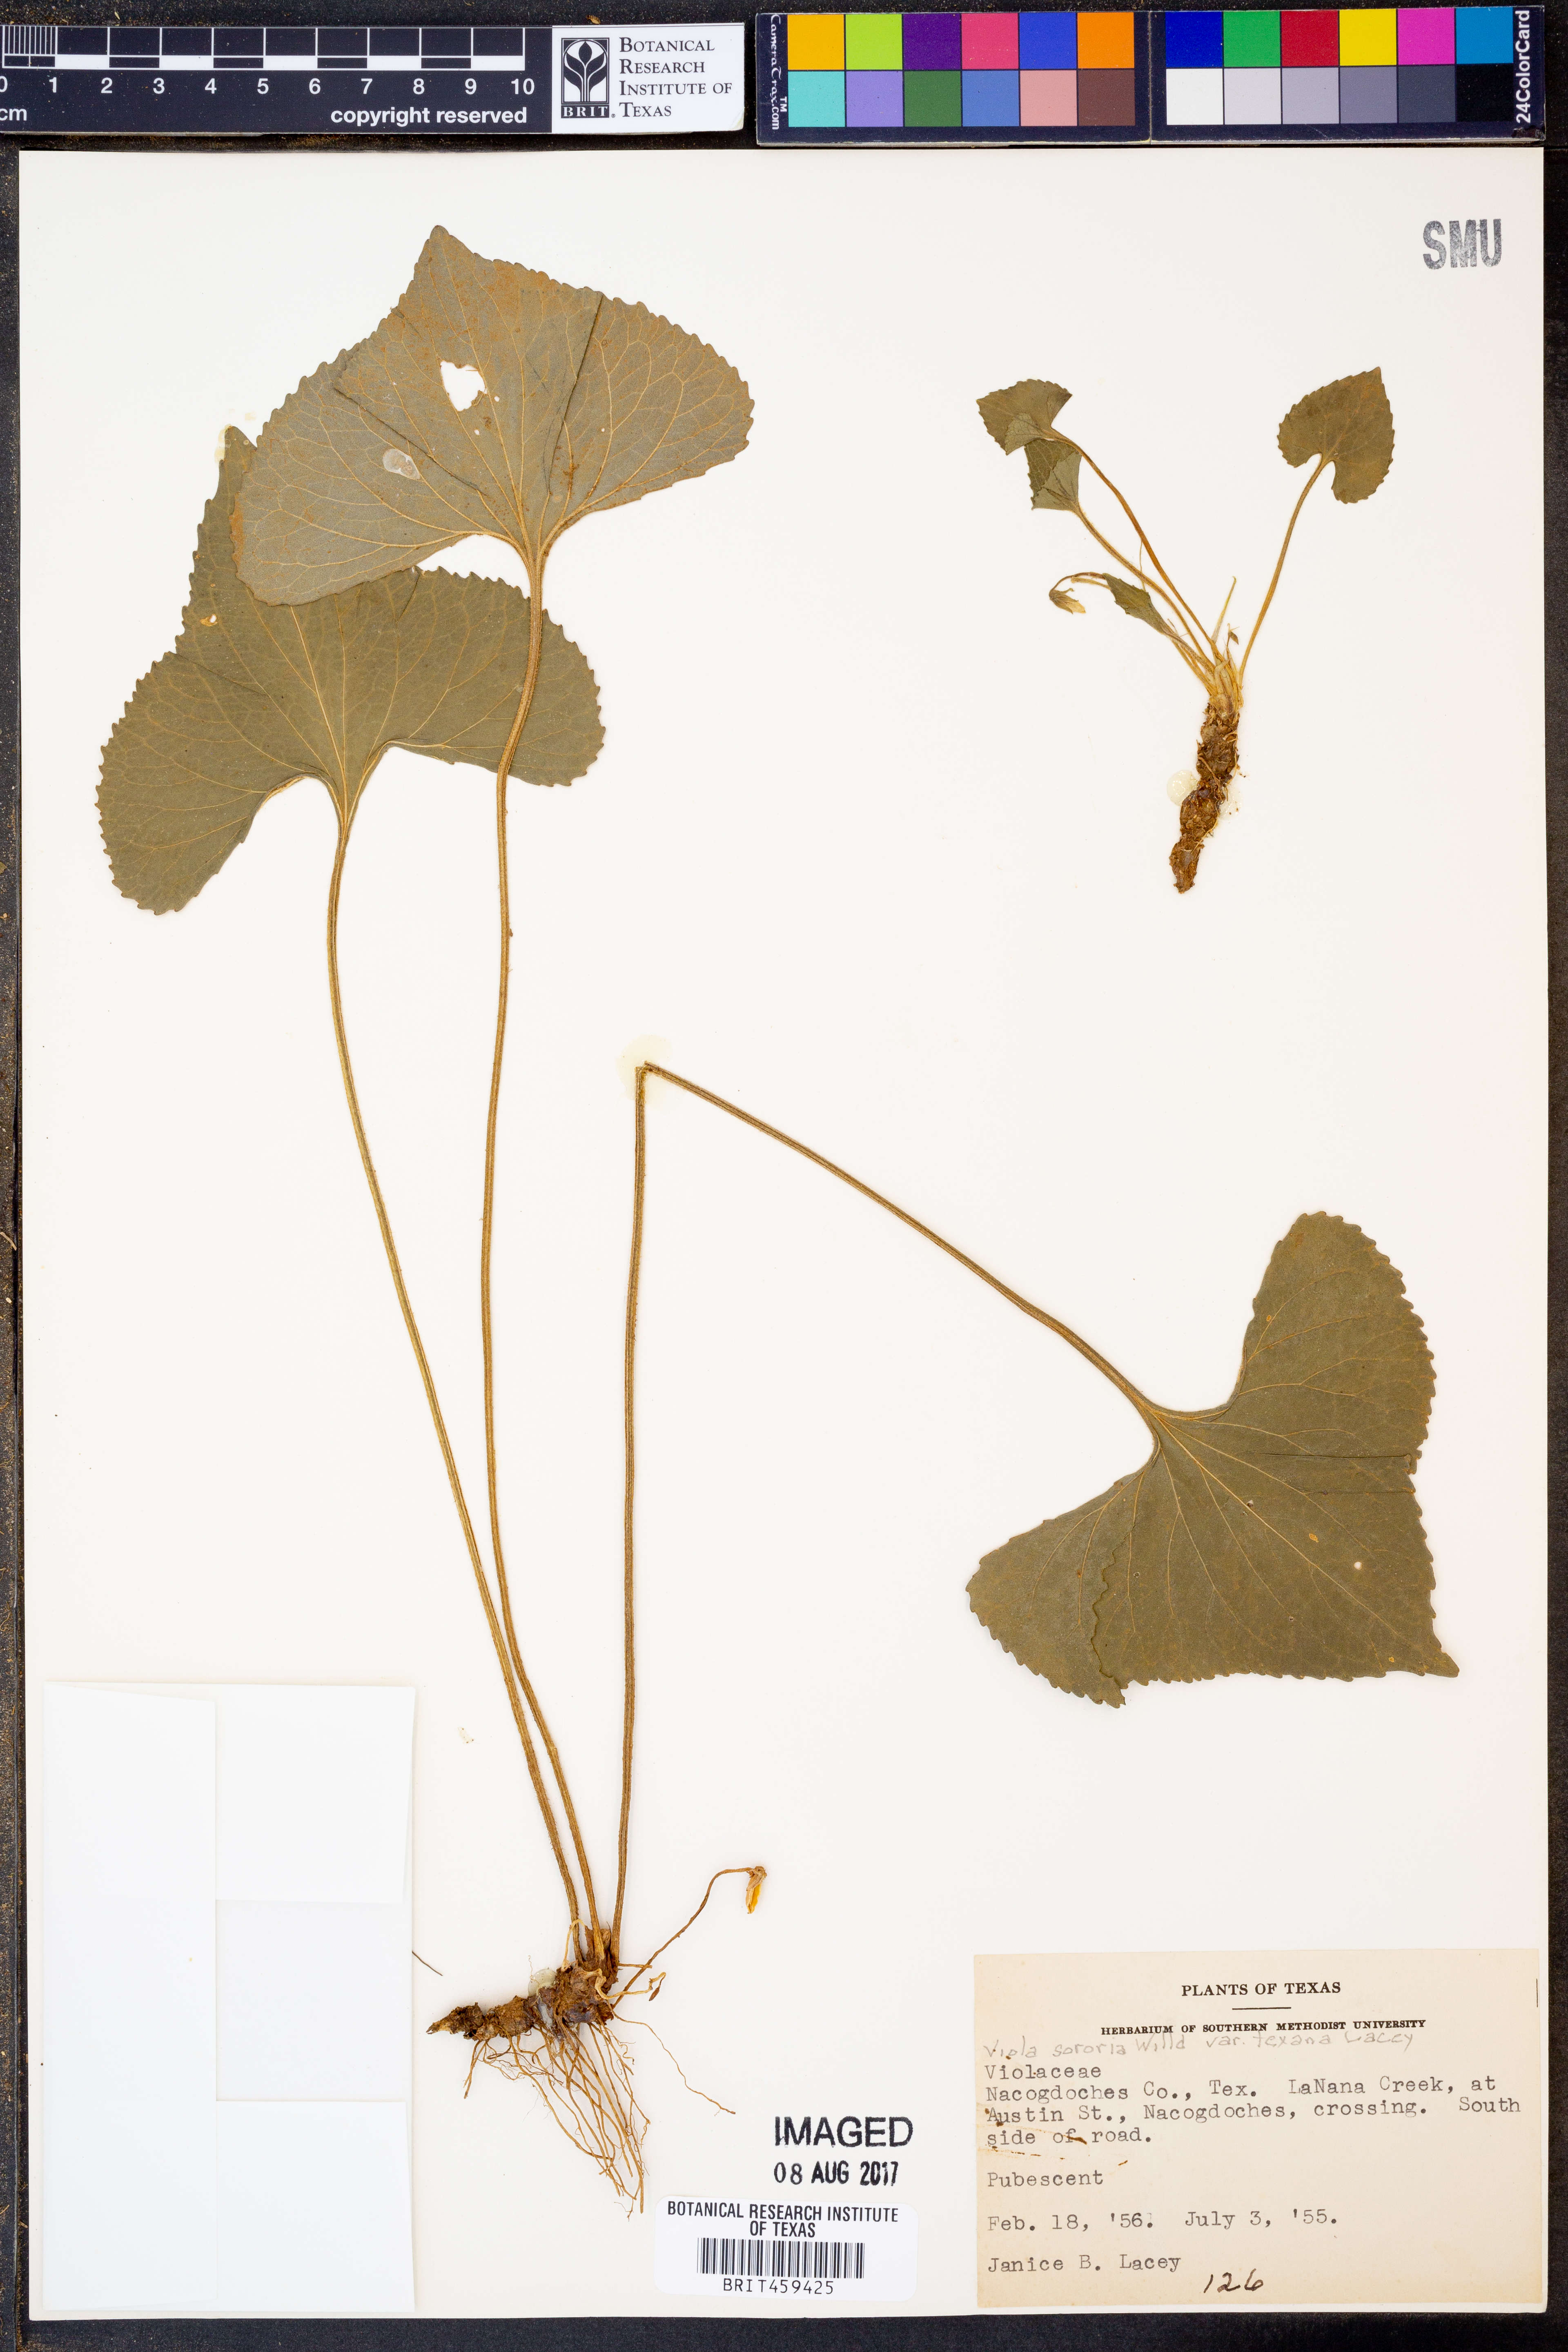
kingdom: Plantae
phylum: Tracheophyta
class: Magnoliopsida
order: Malpighiales
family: Violaceae
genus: Viola
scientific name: Viola sororia
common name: Dooryard violet
